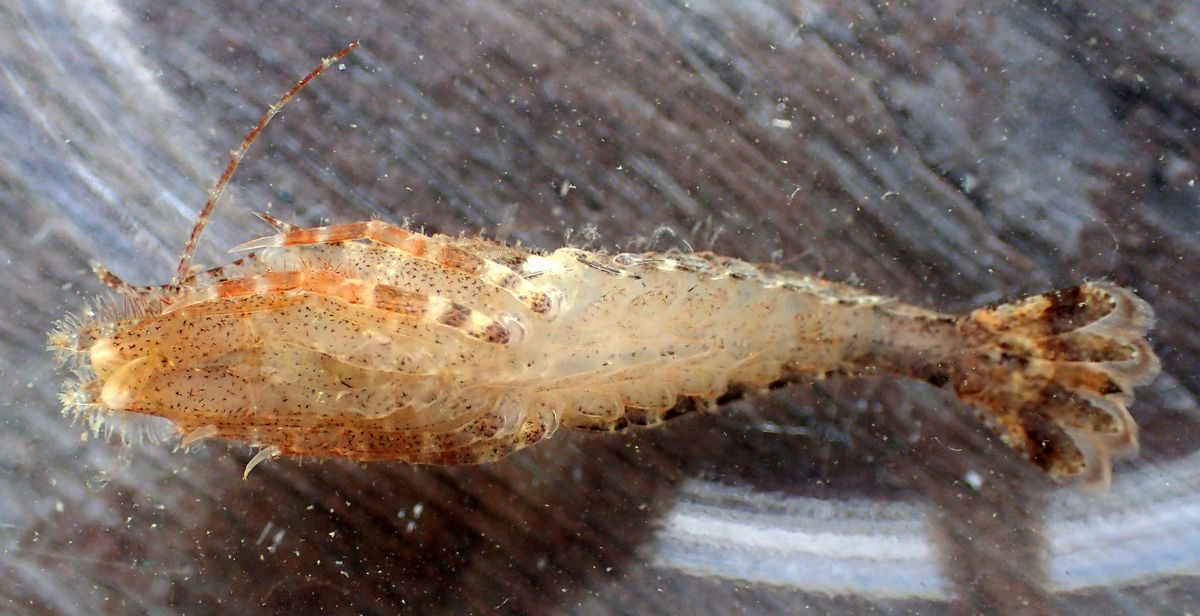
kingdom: Animalia
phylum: Arthropoda
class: Malacostraca
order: Decapoda
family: Crangonidae
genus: Sclerocrangon
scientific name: Sclerocrangon boreas
